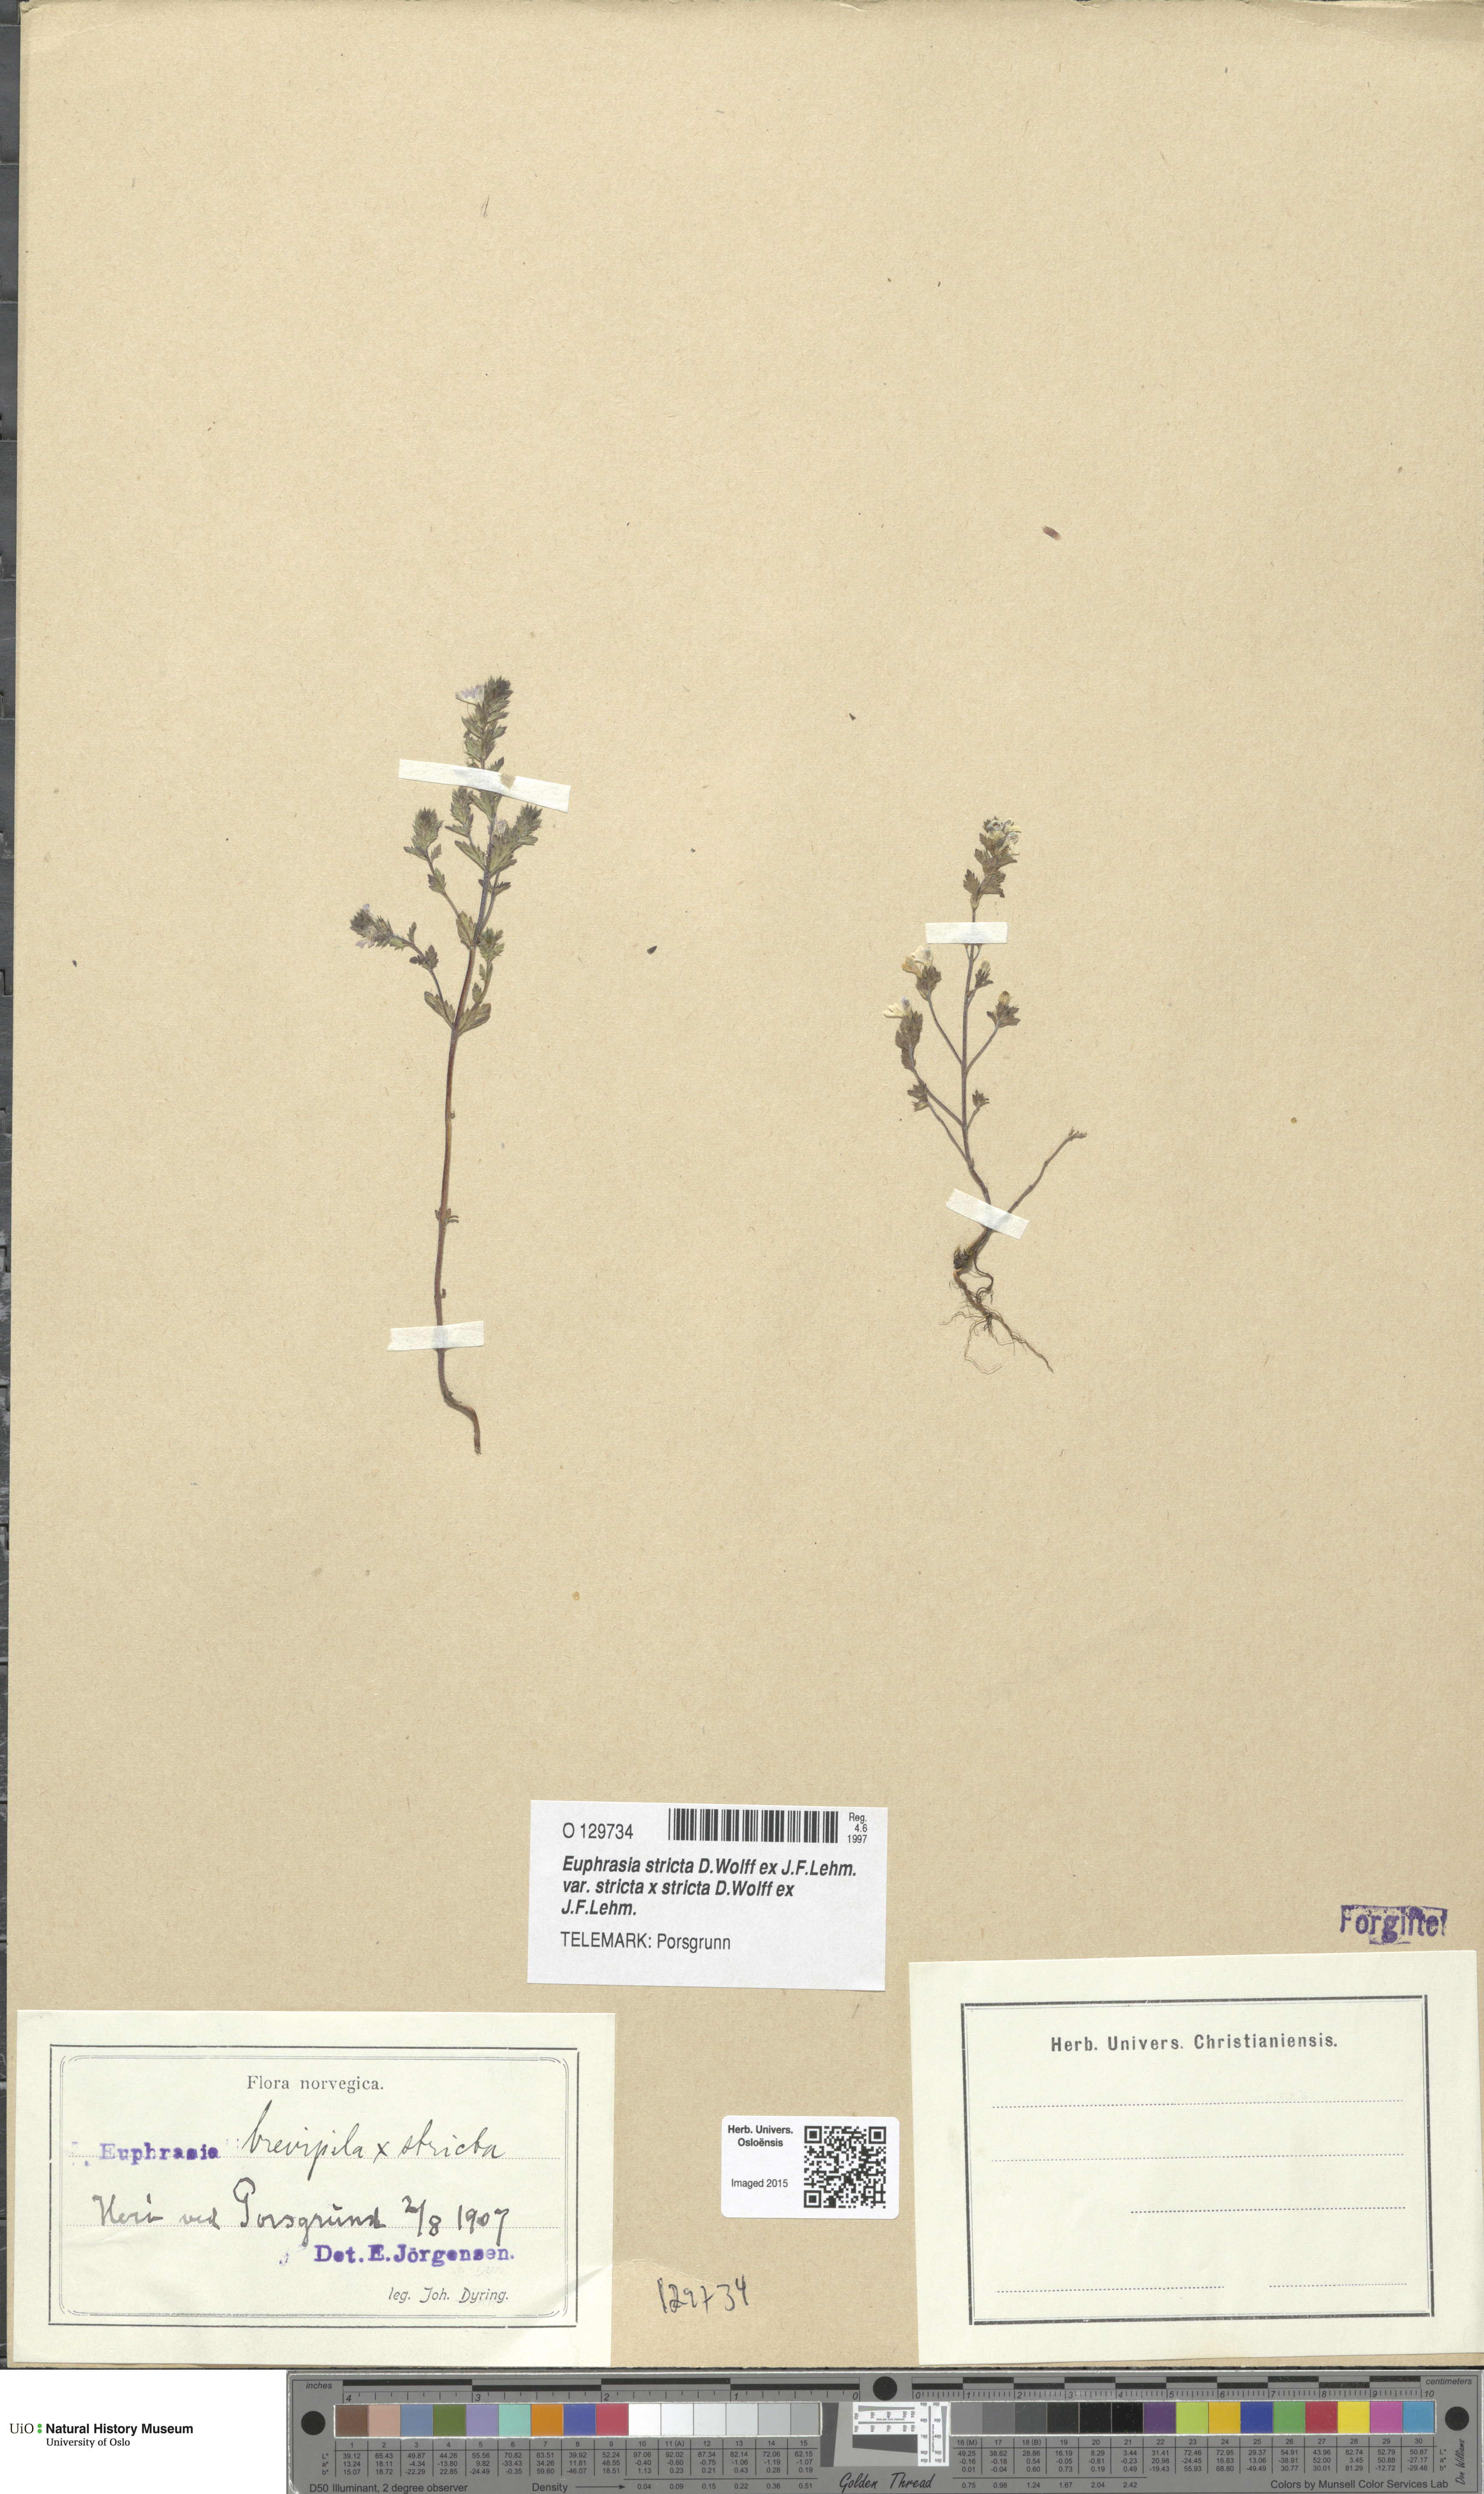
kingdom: Plantae
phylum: Tracheophyta
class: Magnoliopsida
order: Lamiales
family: Orobanchaceae
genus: Euphrasia
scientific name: Euphrasia
